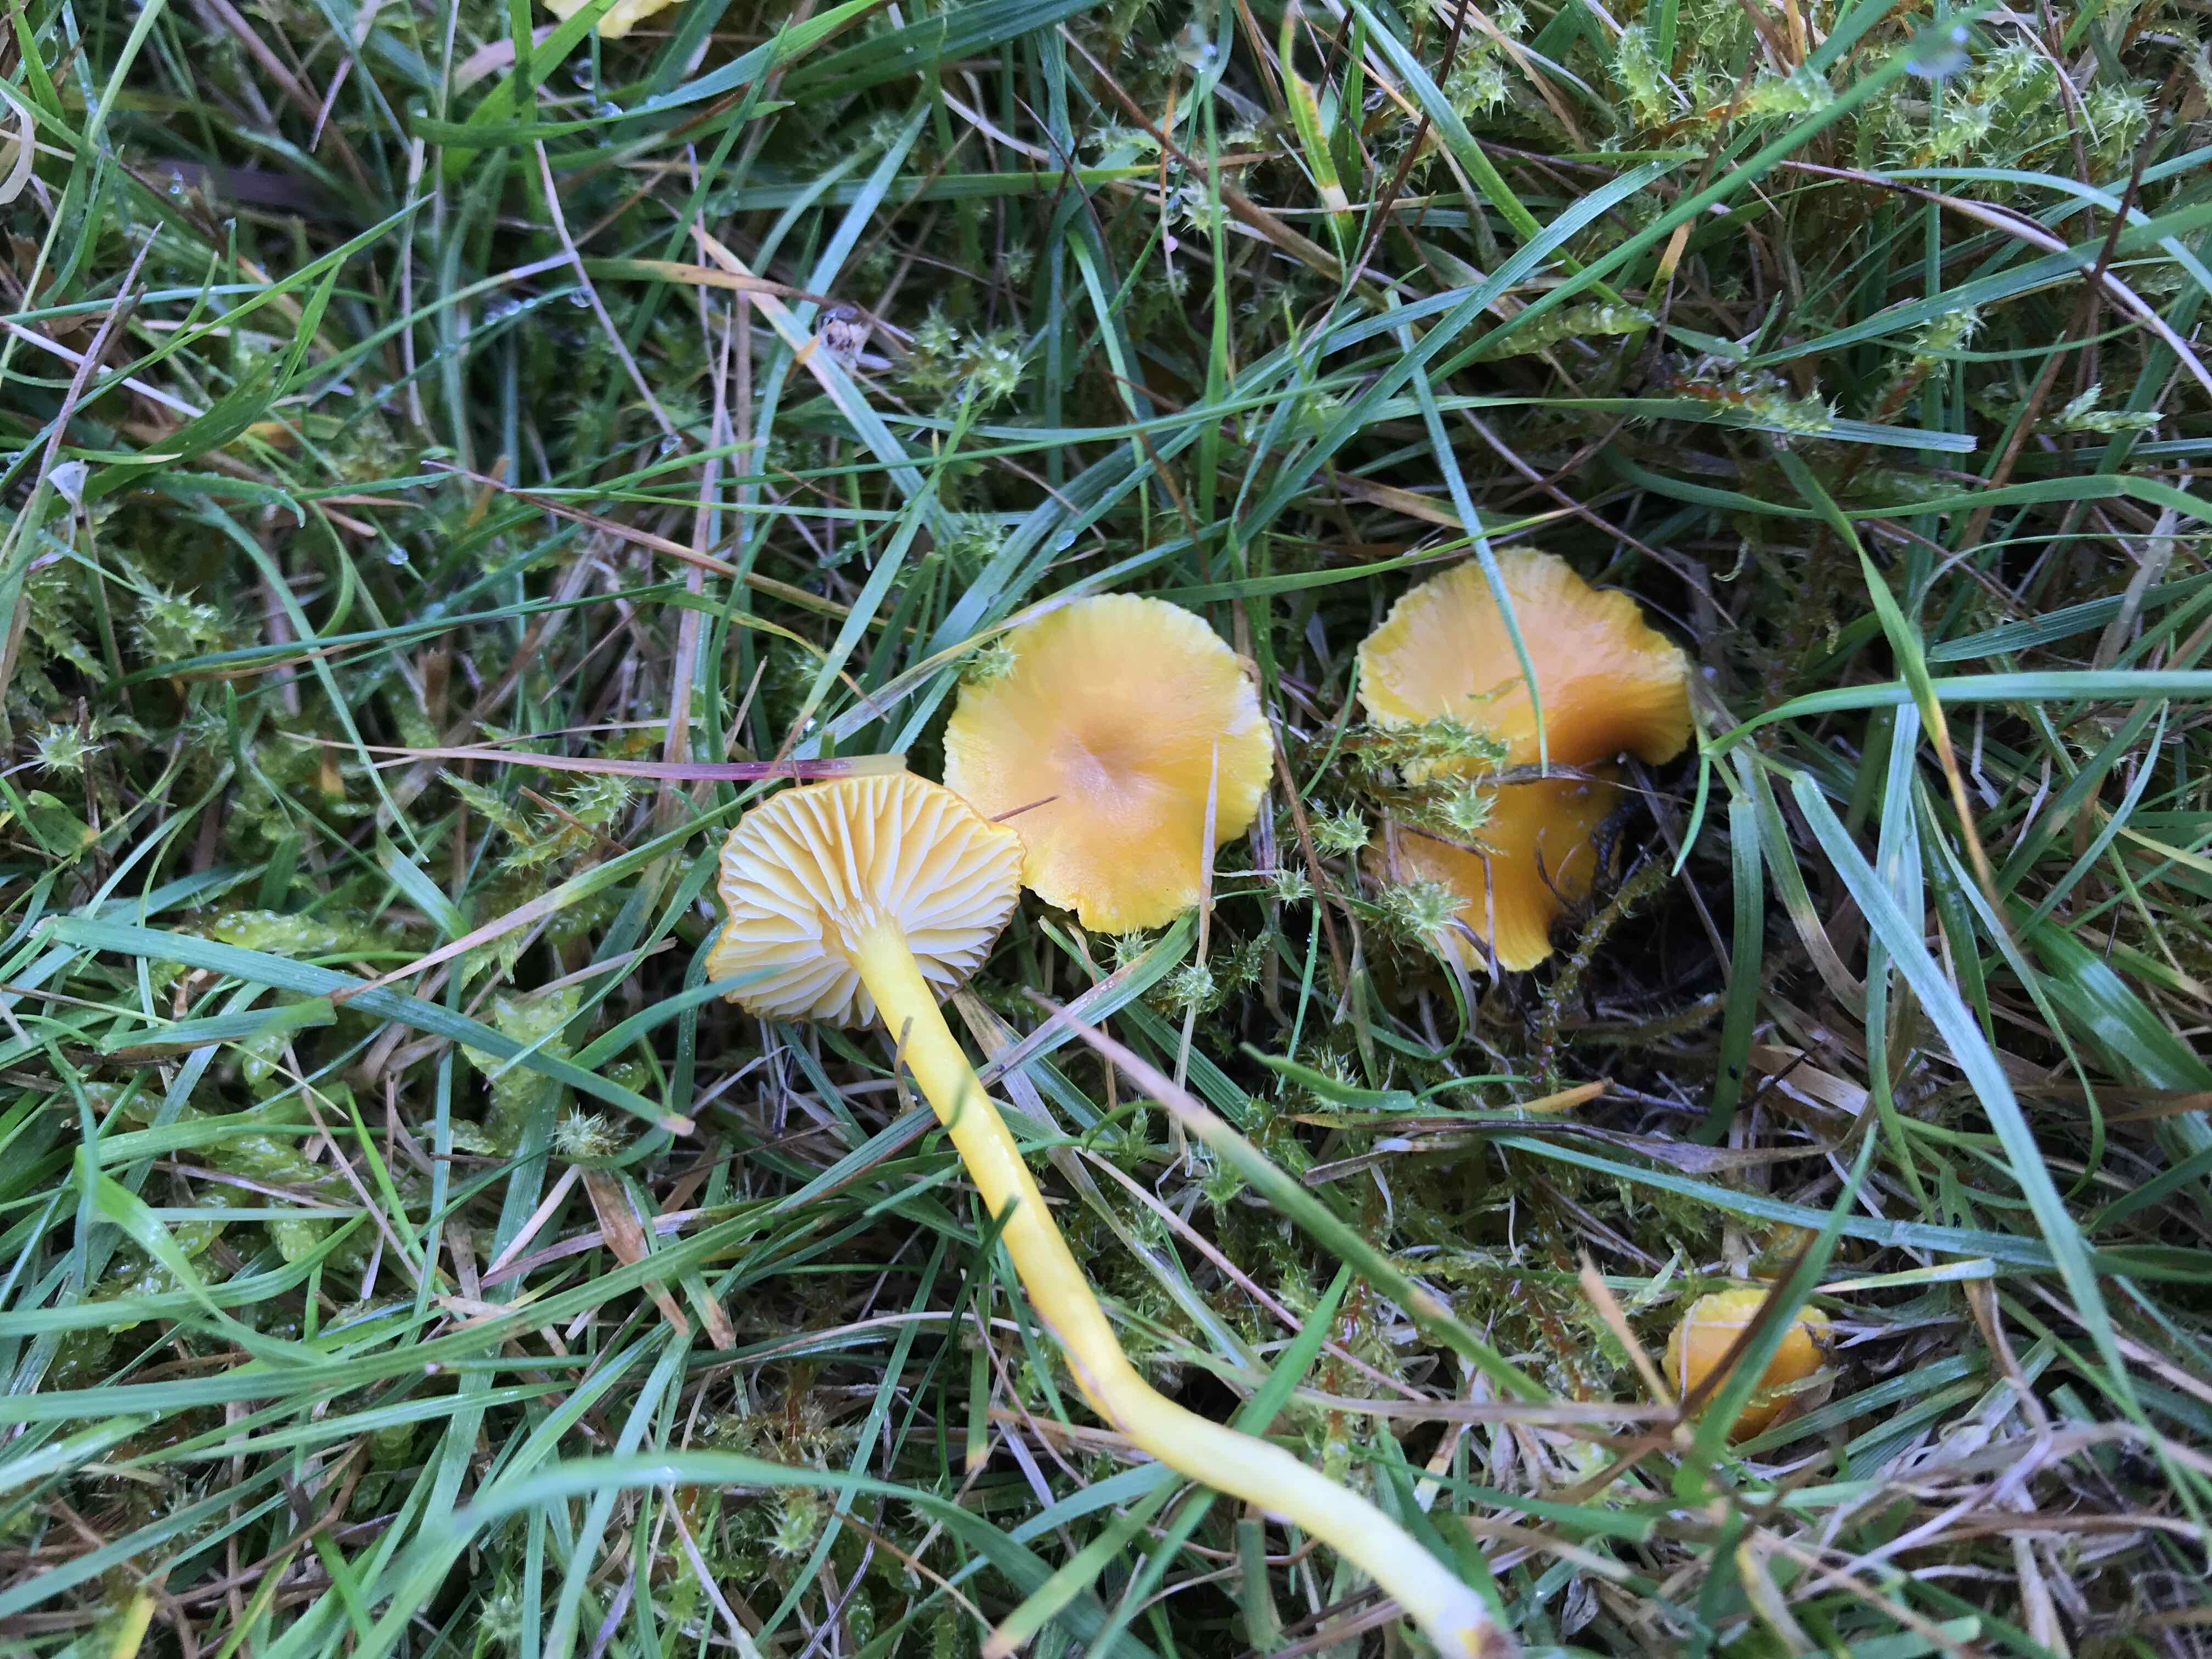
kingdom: Fungi
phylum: Basidiomycota
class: Agaricomycetes
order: Agaricales
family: Hygrophoraceae
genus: Hygrocybe
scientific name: Hygrocybe ceracea
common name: voksgul vokshat
